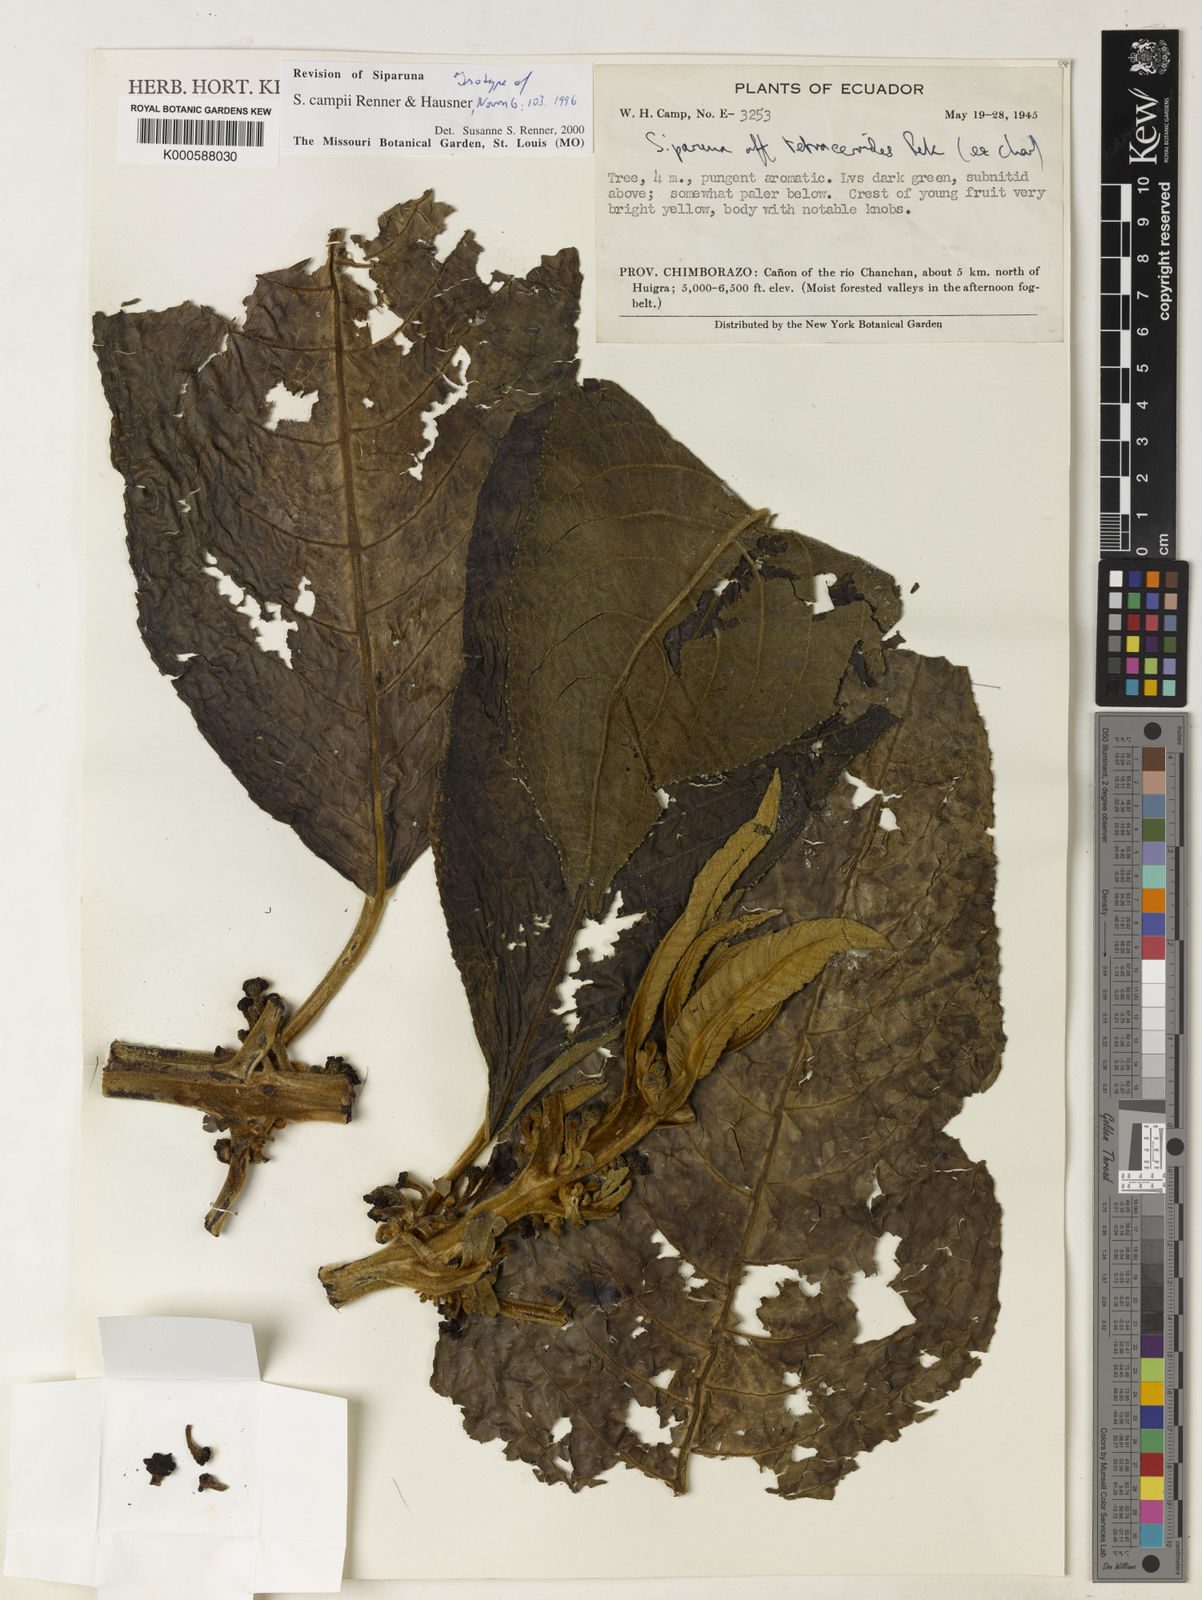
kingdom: Plantae
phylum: Tracheophyta
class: Magnoliopsida
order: Laurales
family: Siparunaceae
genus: Siparuna
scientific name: Siparuna campii
